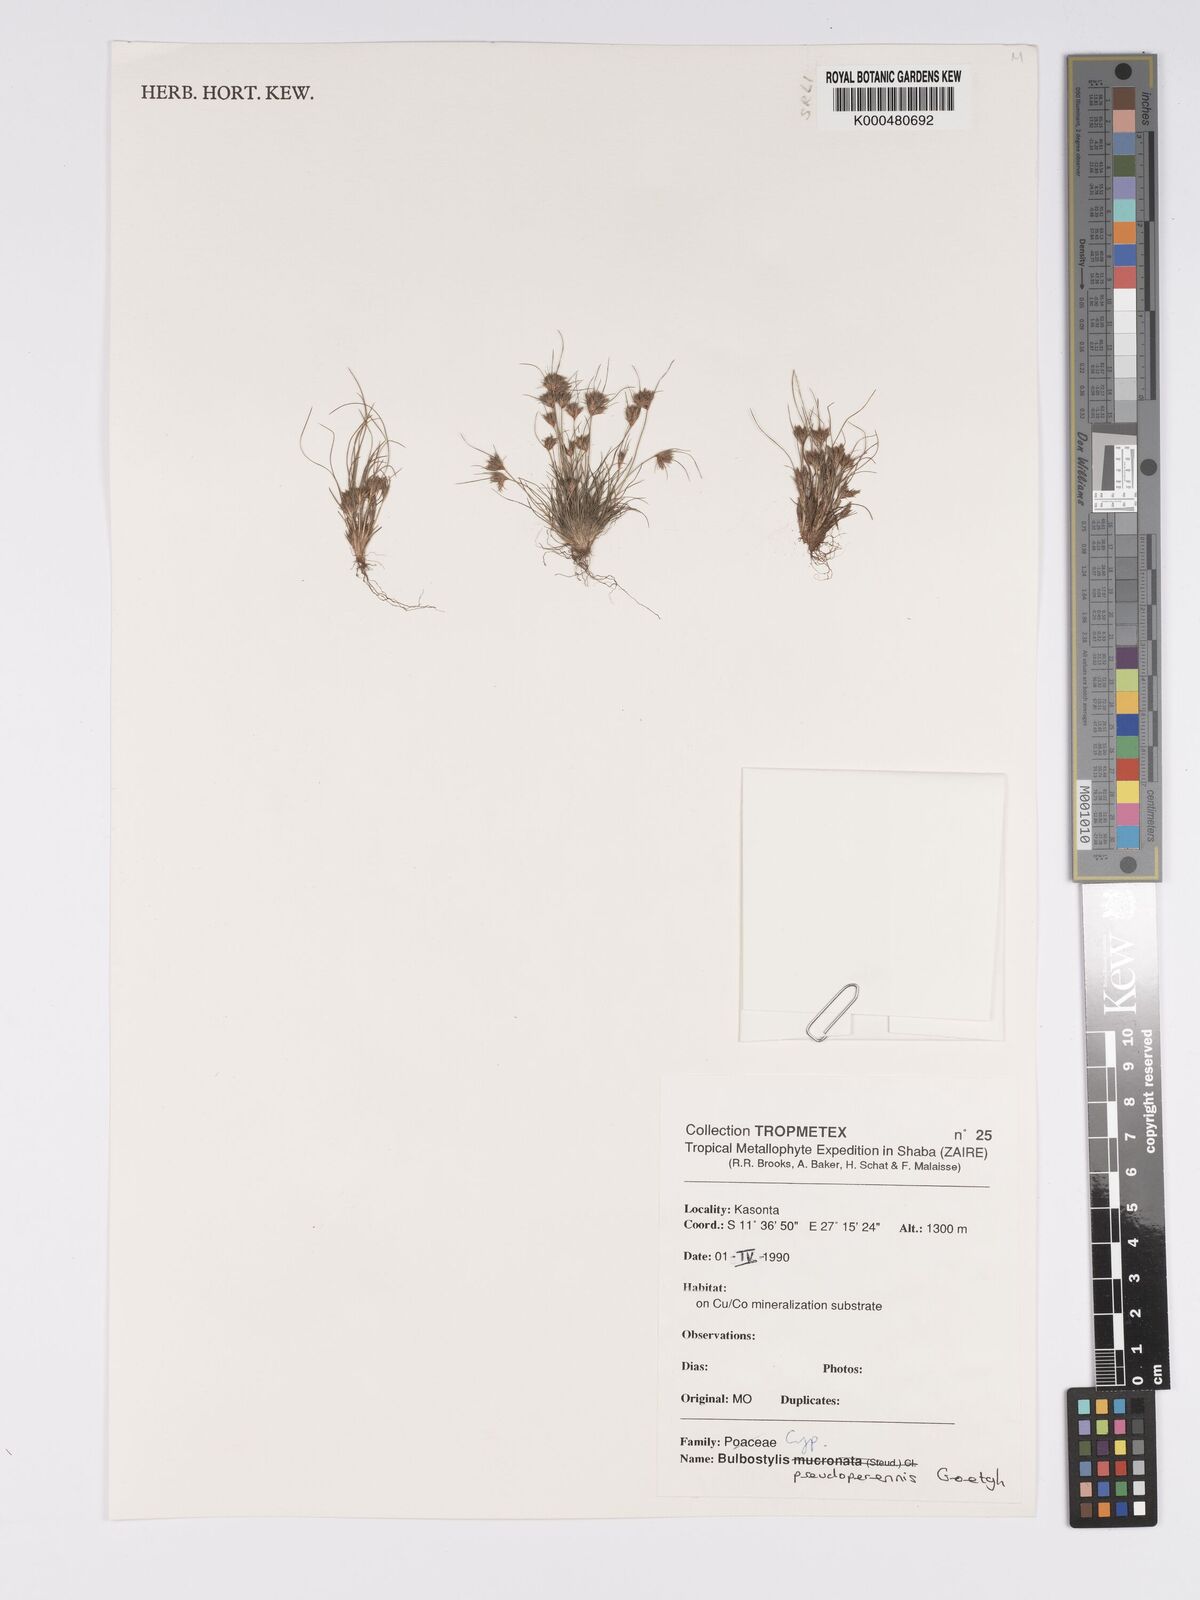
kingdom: Plantae
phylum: Tracheophyta
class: Liliopsida
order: Poales
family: Cyperaceae
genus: Bulbostylis
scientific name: Bulbostylis abbreviata
